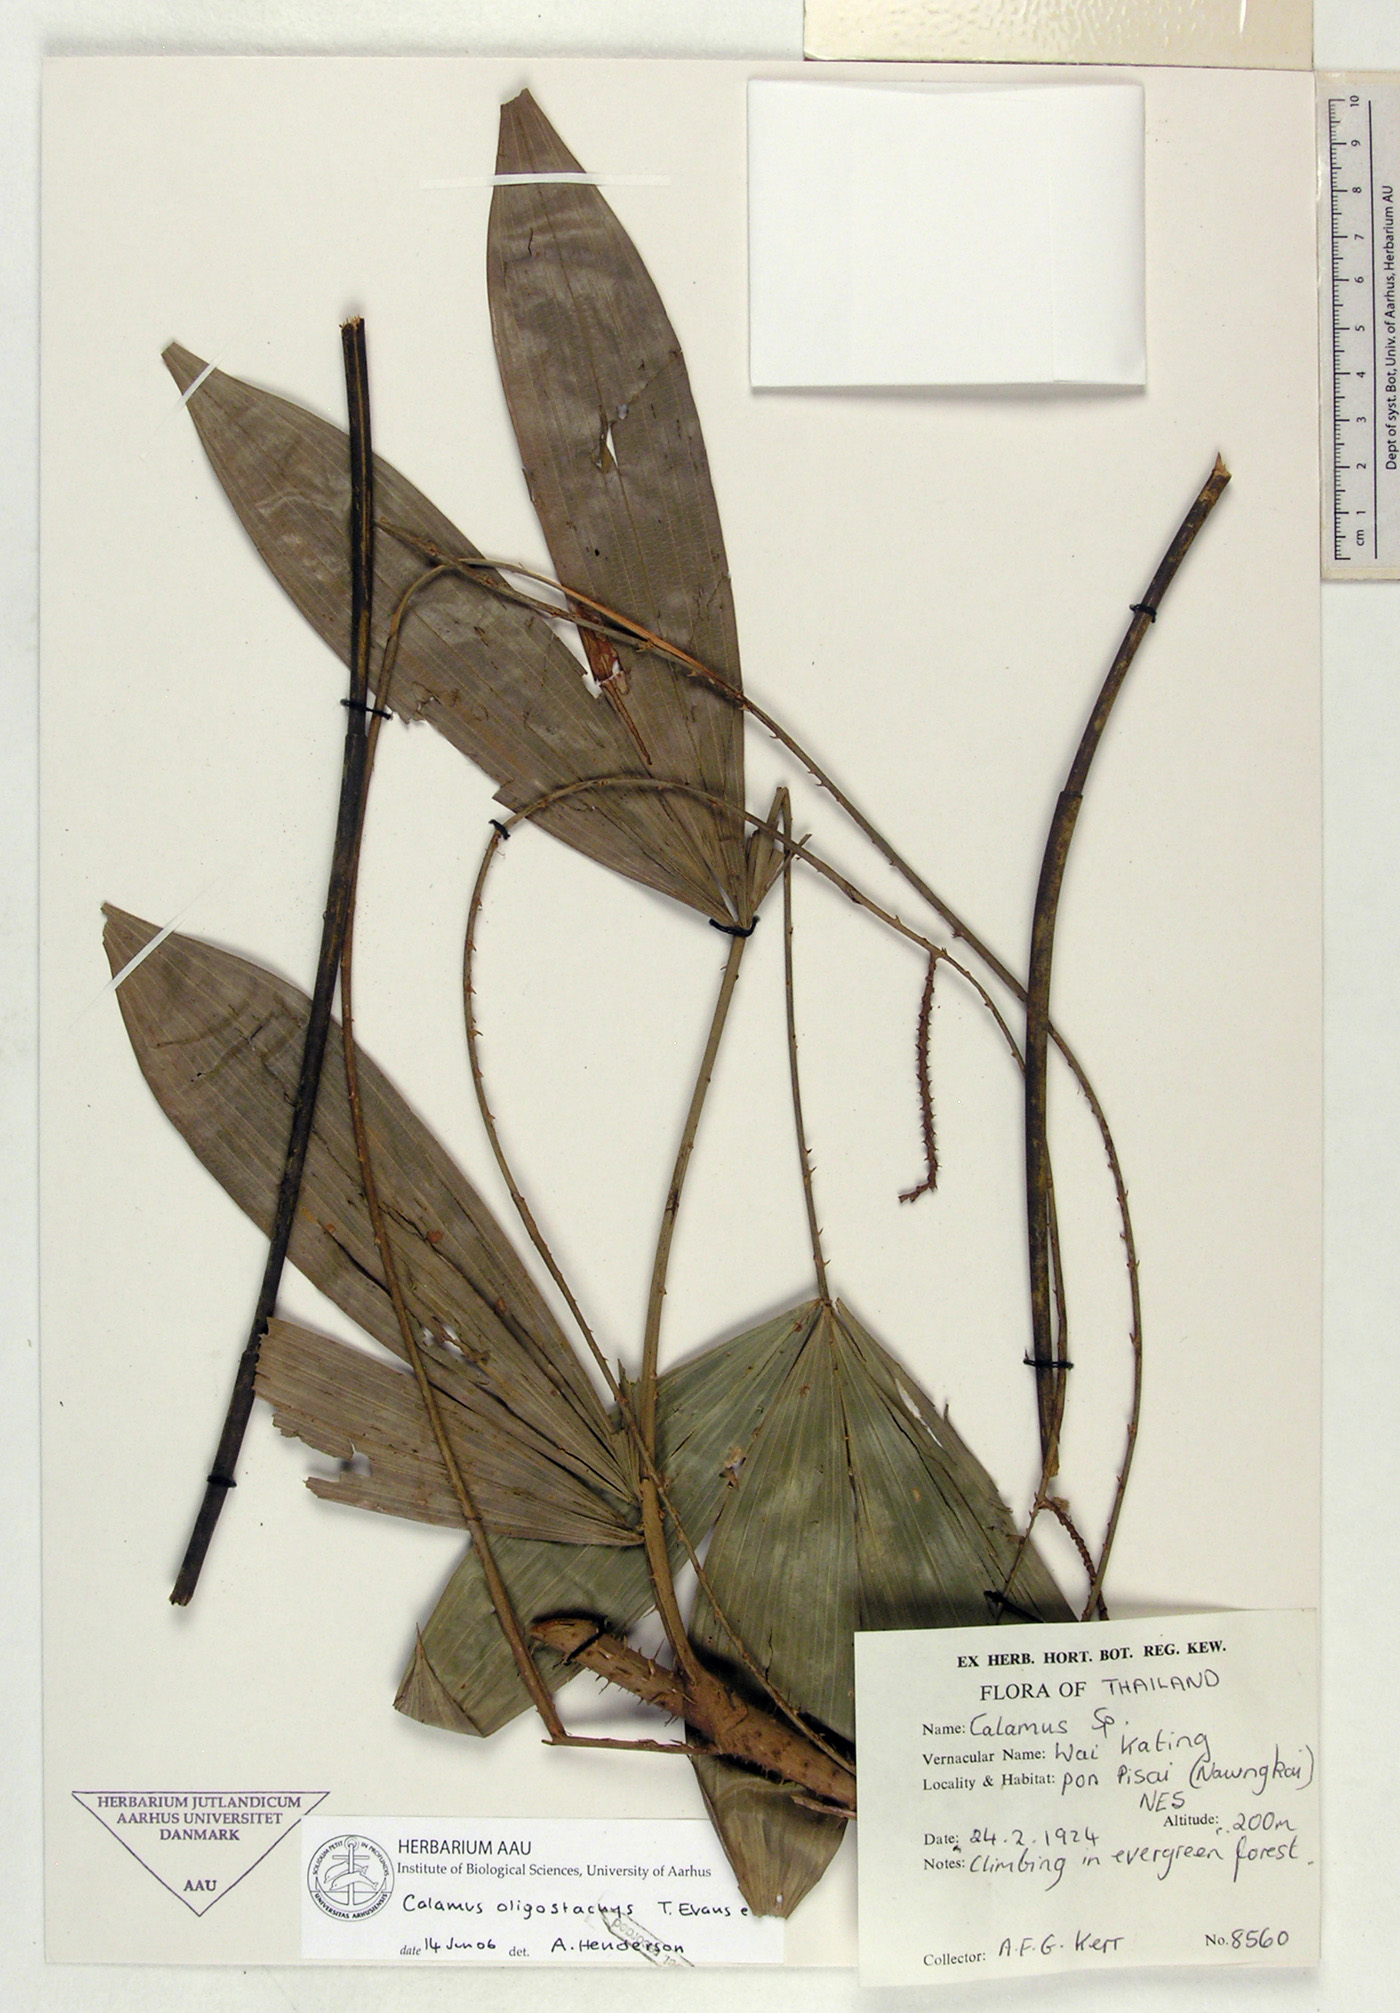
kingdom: Plantae
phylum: Tracheophyta
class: Liliopsida
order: Arecales
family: Arecaceae
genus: Calamus
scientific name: Calamus oligostachys
